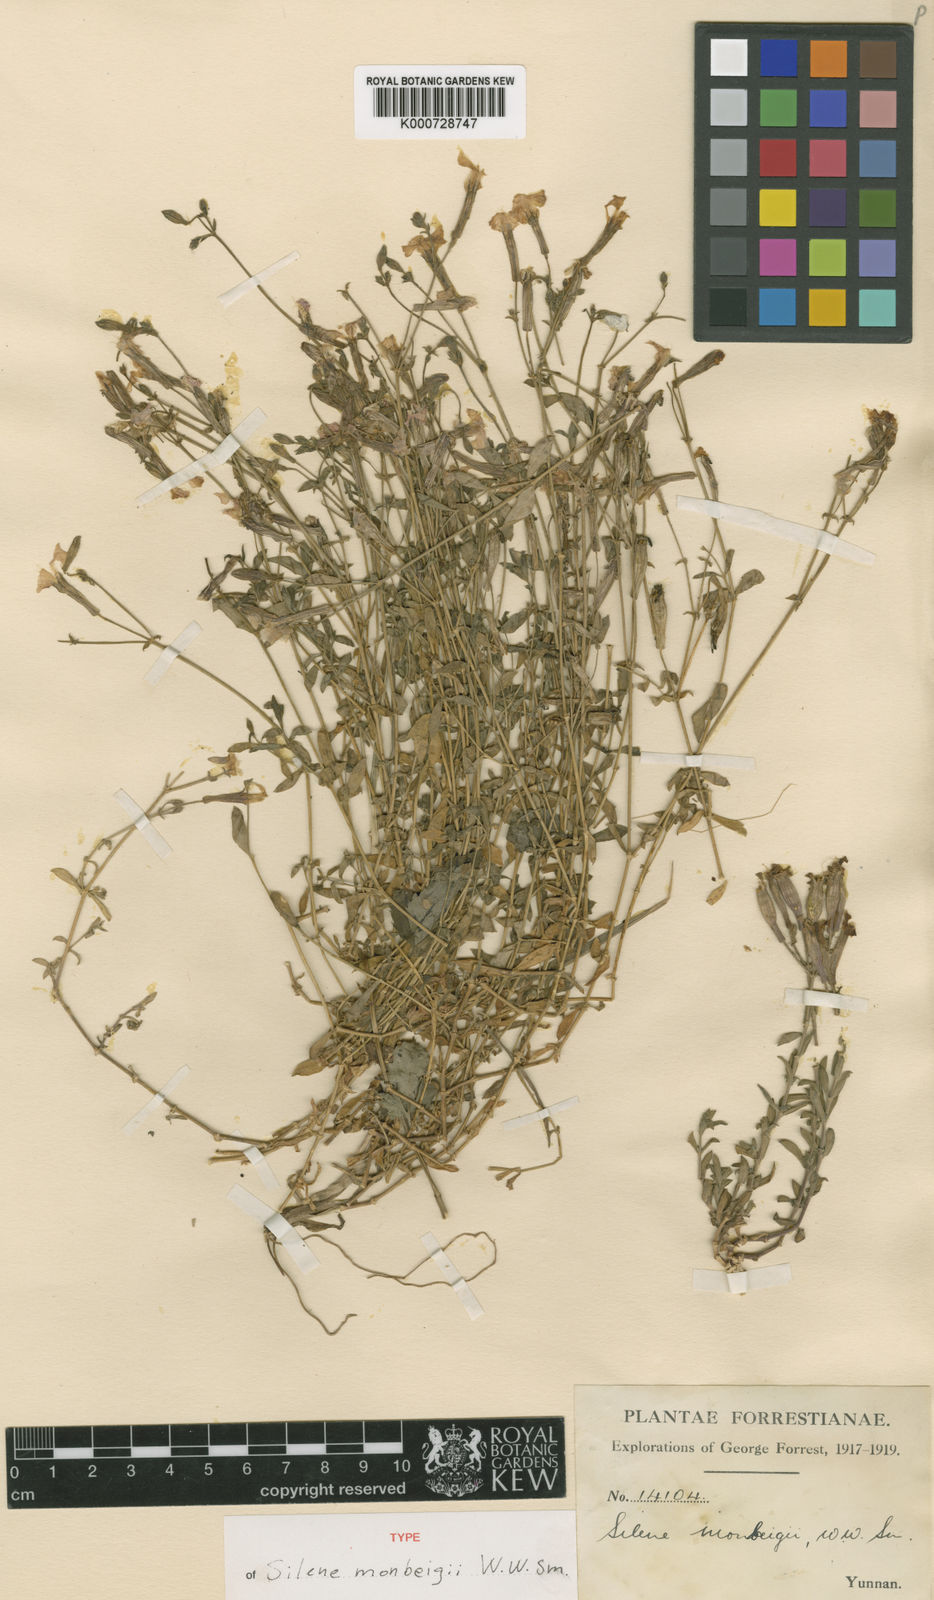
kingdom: Plantae
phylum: Tracheophyta
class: Magnoliopsida
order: Caryophyllales
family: Caryophyllaceae
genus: Silene
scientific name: Silene monbeigii
